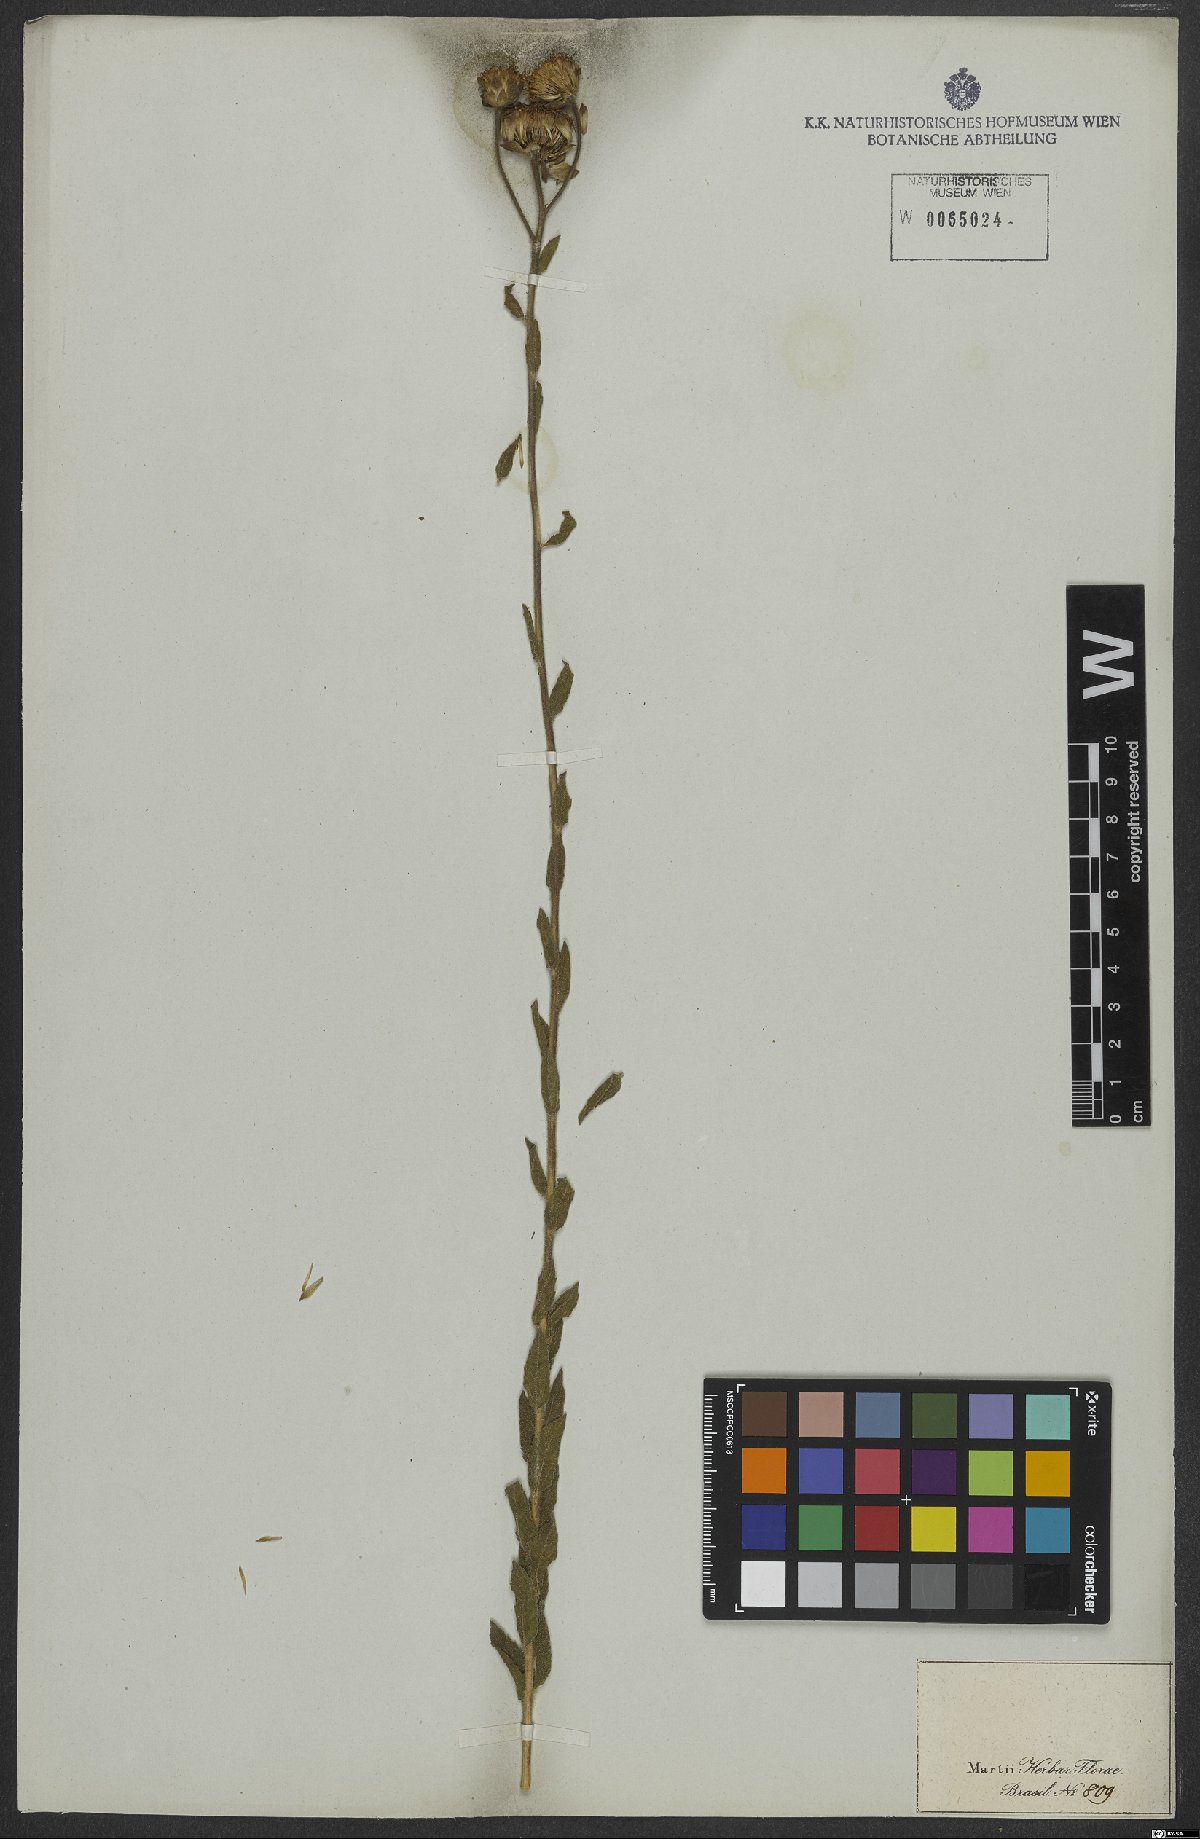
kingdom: Plantae
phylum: Tracheophyta
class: Magnoliopsida
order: Asterales
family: Asteraceae
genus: Viguiera
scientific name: Viguiera
